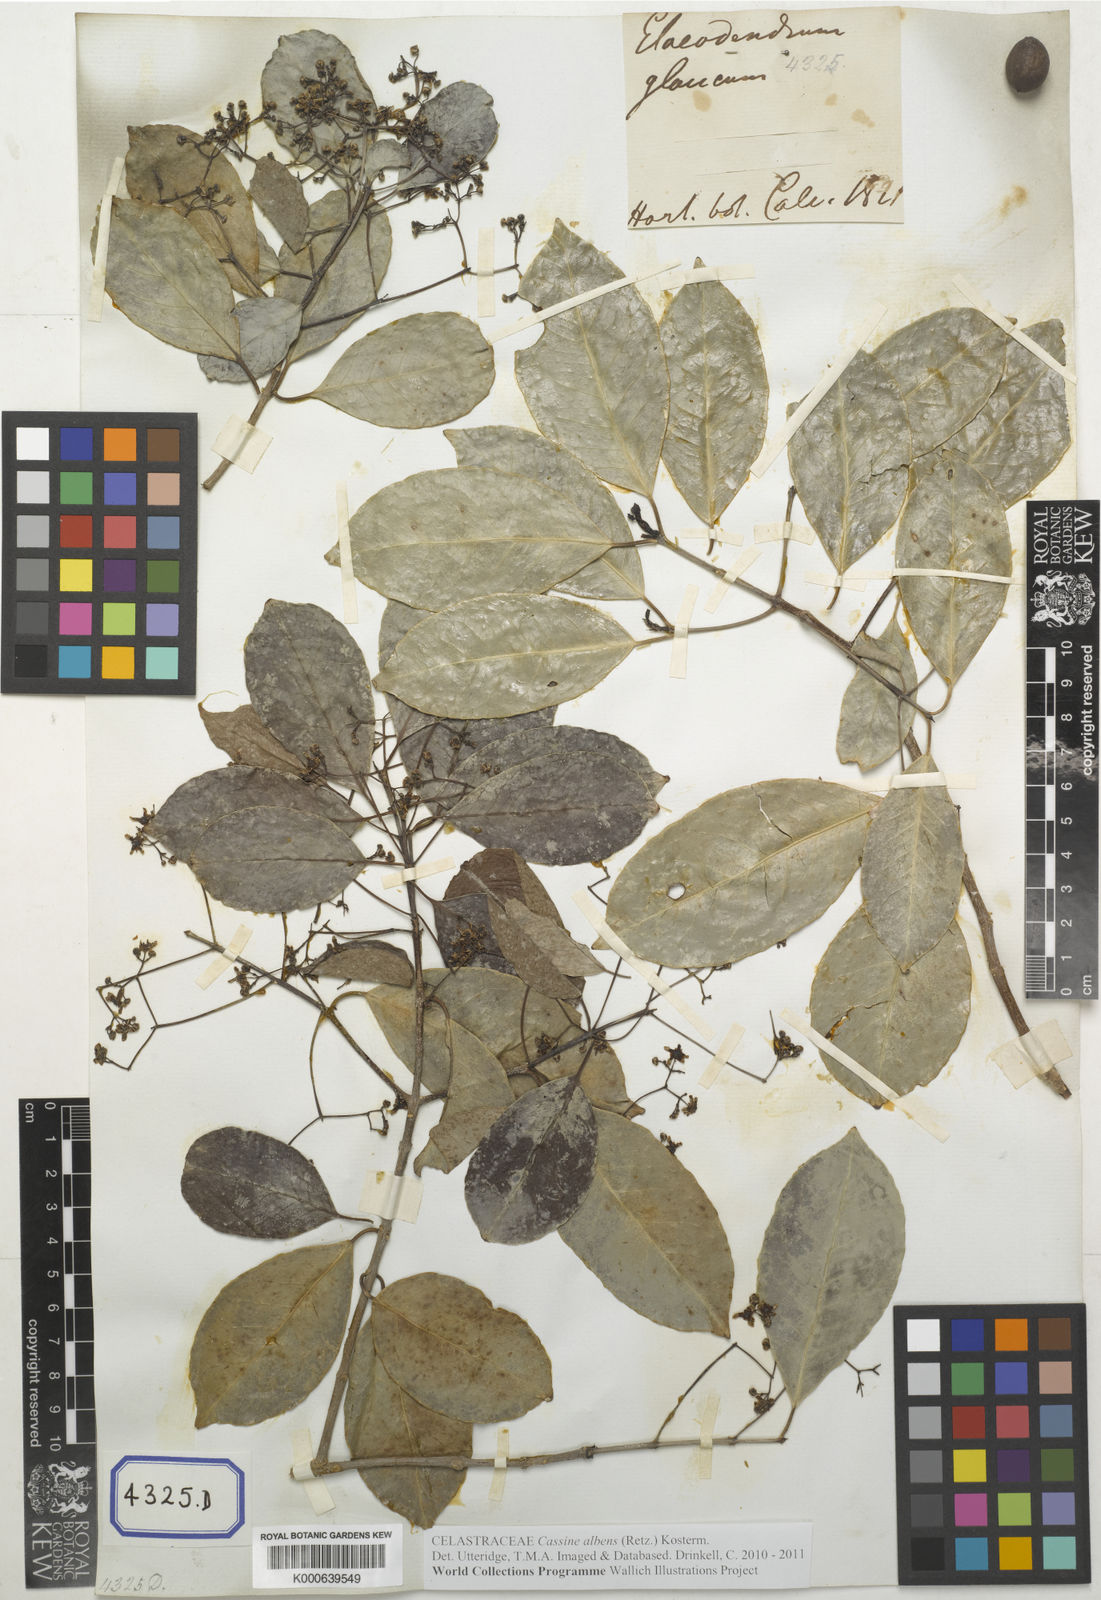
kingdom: Plantae
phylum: Tracheophyta
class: Magnoliopsida
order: Celastrales
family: Celastraceae
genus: Elaeodendron
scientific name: Elaeodendron glaucum
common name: Ceylon-tea
